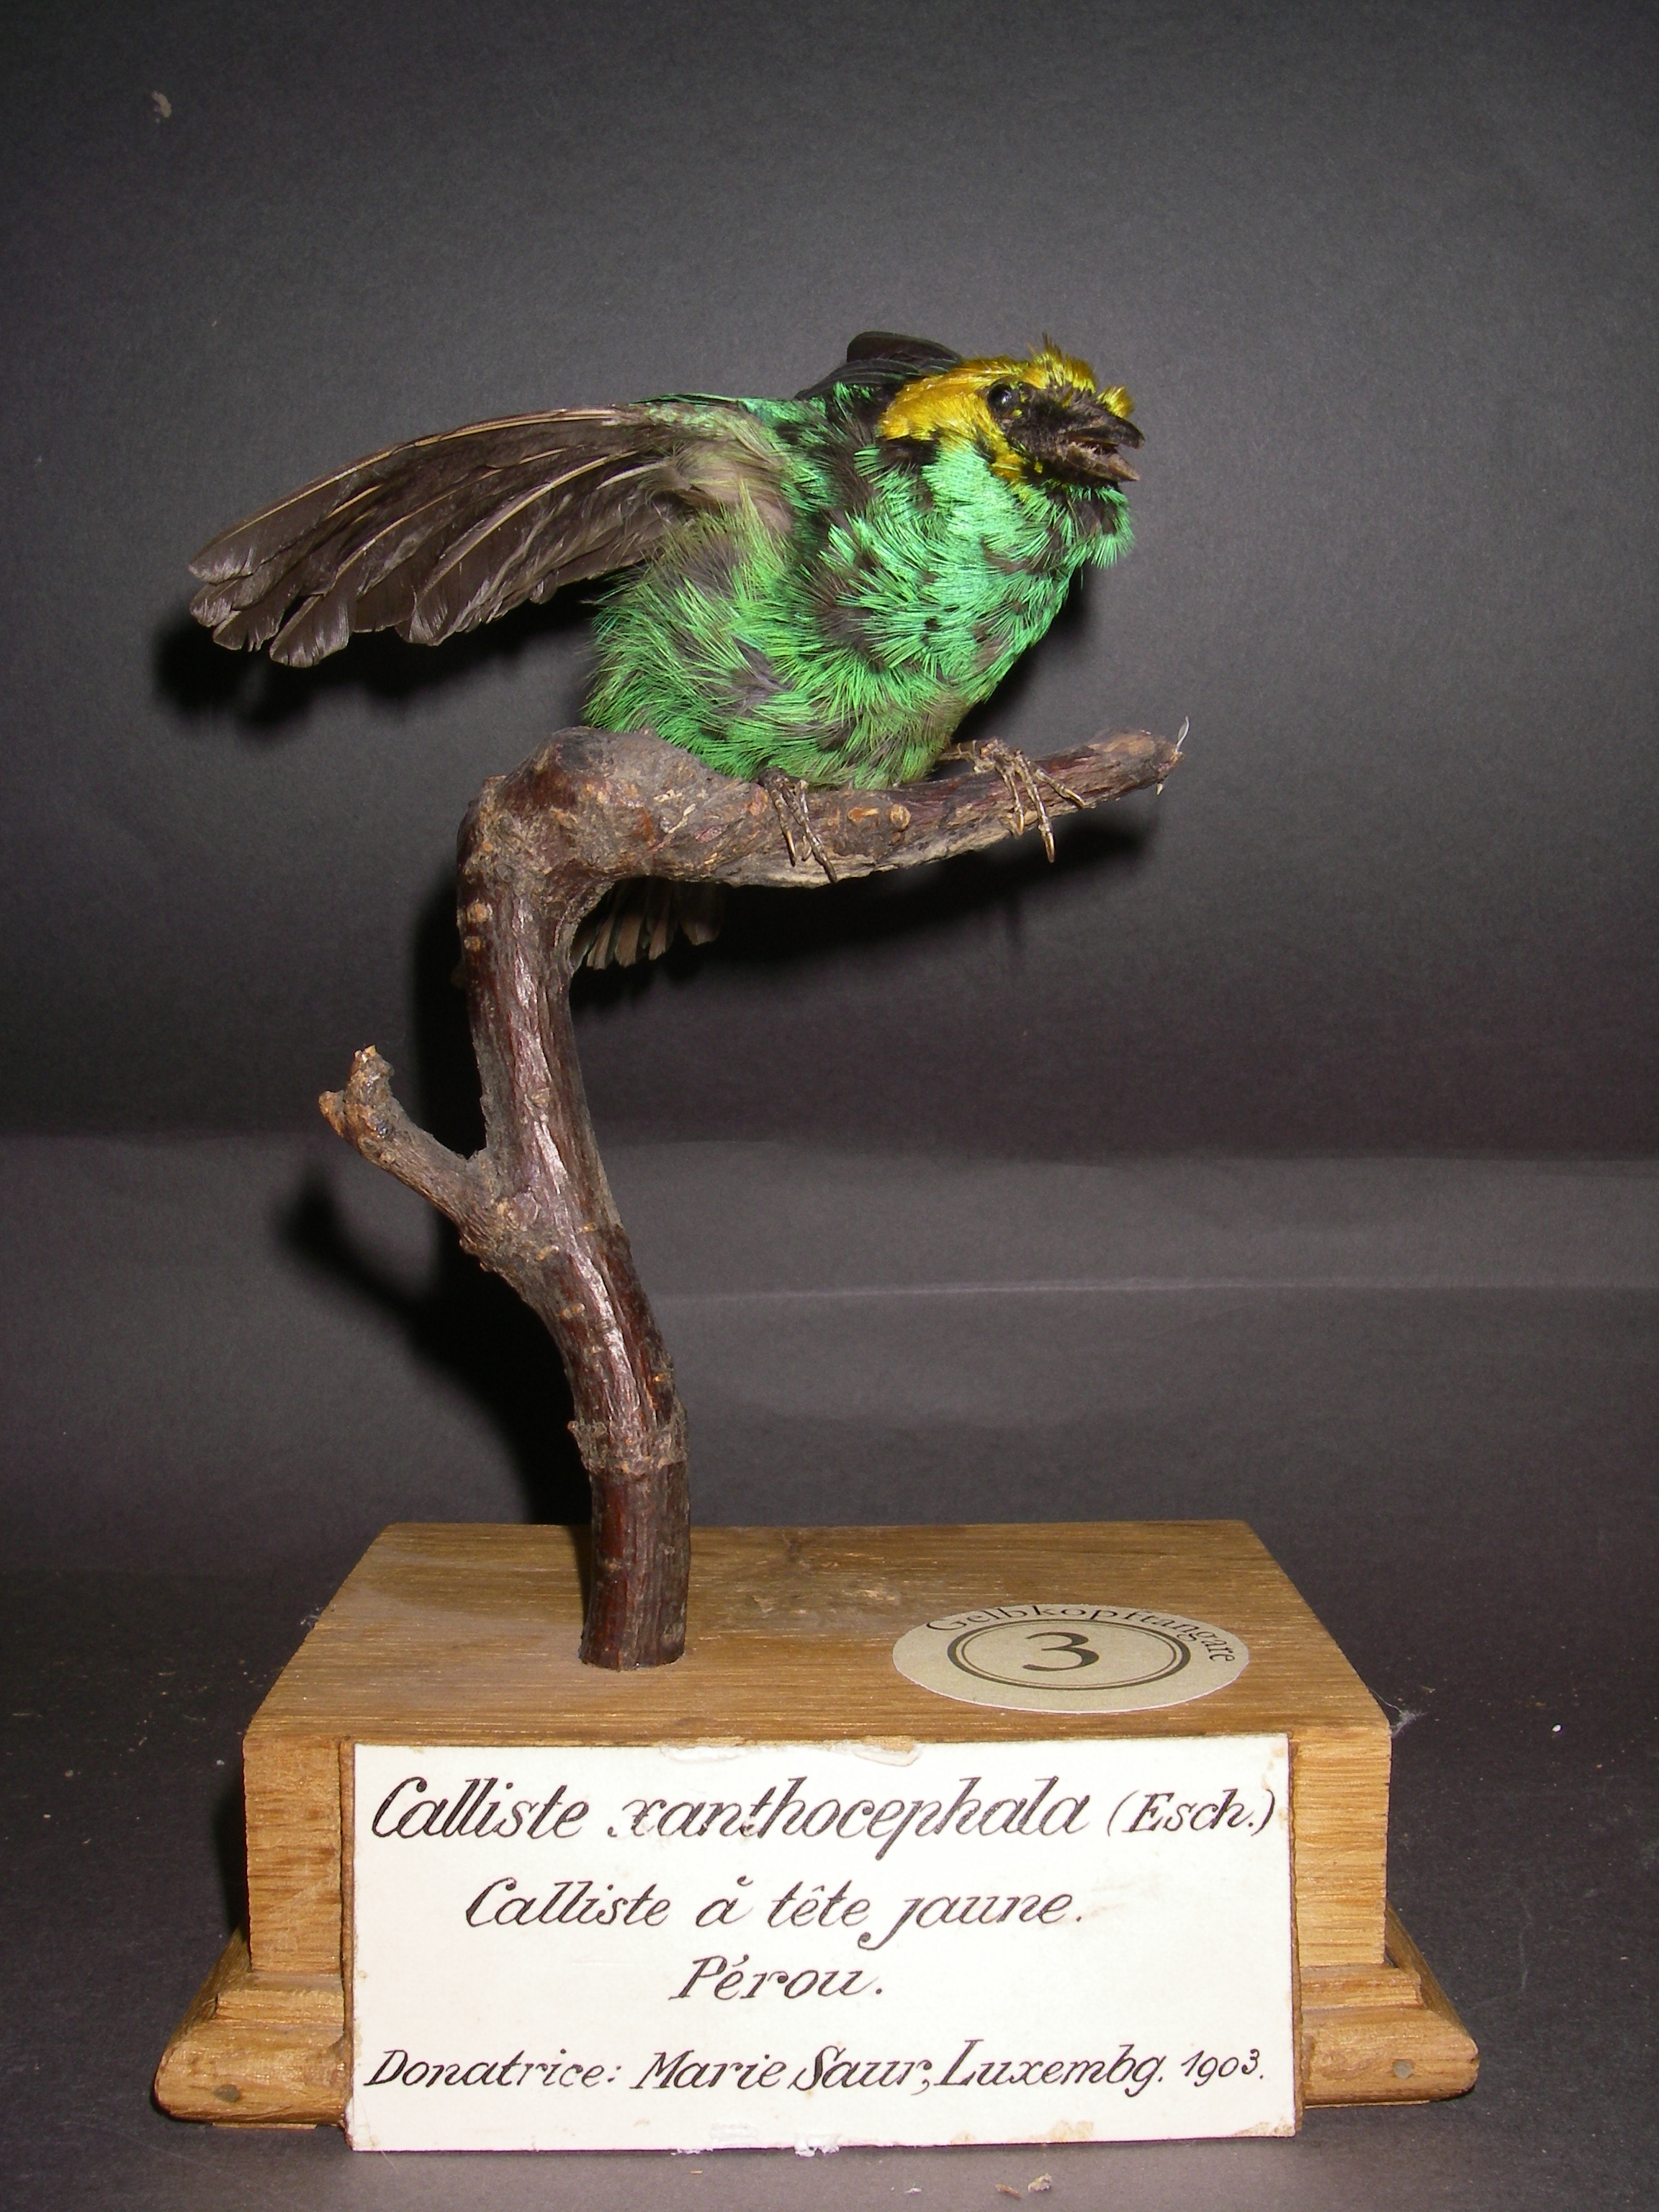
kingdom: Animalia
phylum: Chordata
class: Aves
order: Passeriformes
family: Thraupidae
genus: Tangara
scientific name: Tangara xanthocephala
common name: Saffron-crowned tanager
